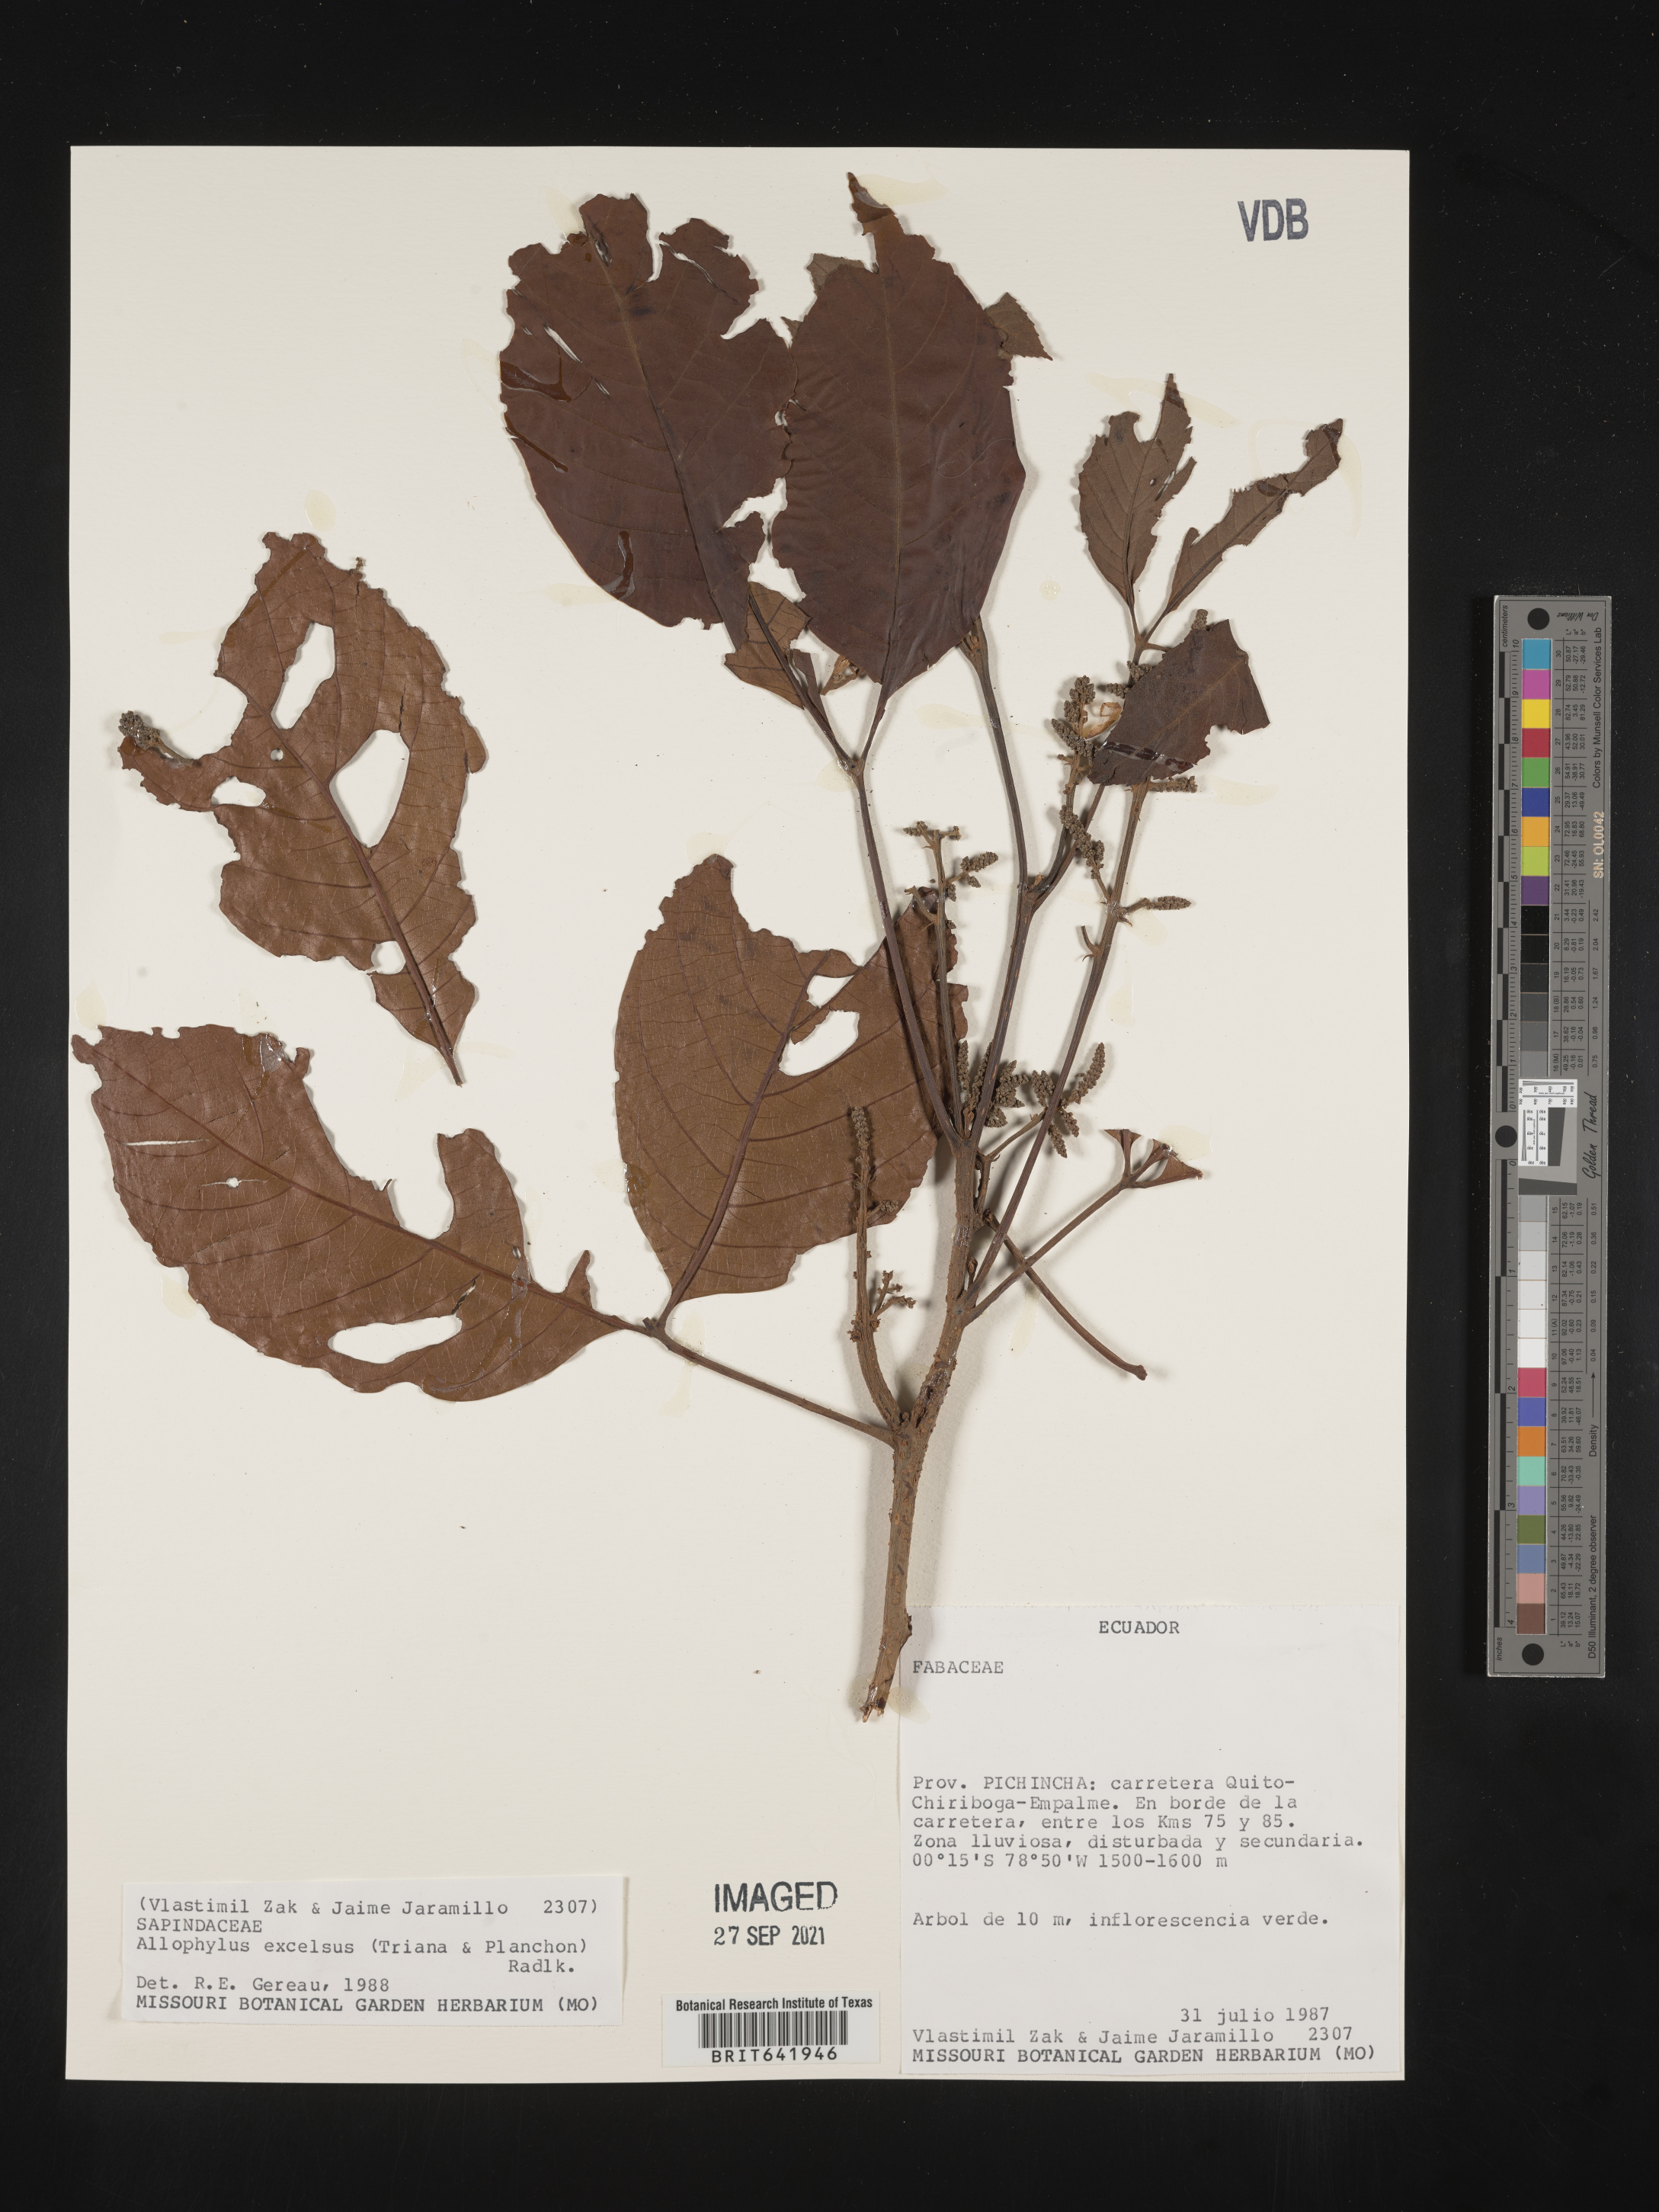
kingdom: Plantae
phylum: Tracheophyta
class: Magnoliopsida
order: Sapindales
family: Sapindaceae
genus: Allophylus
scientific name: Allophylus
